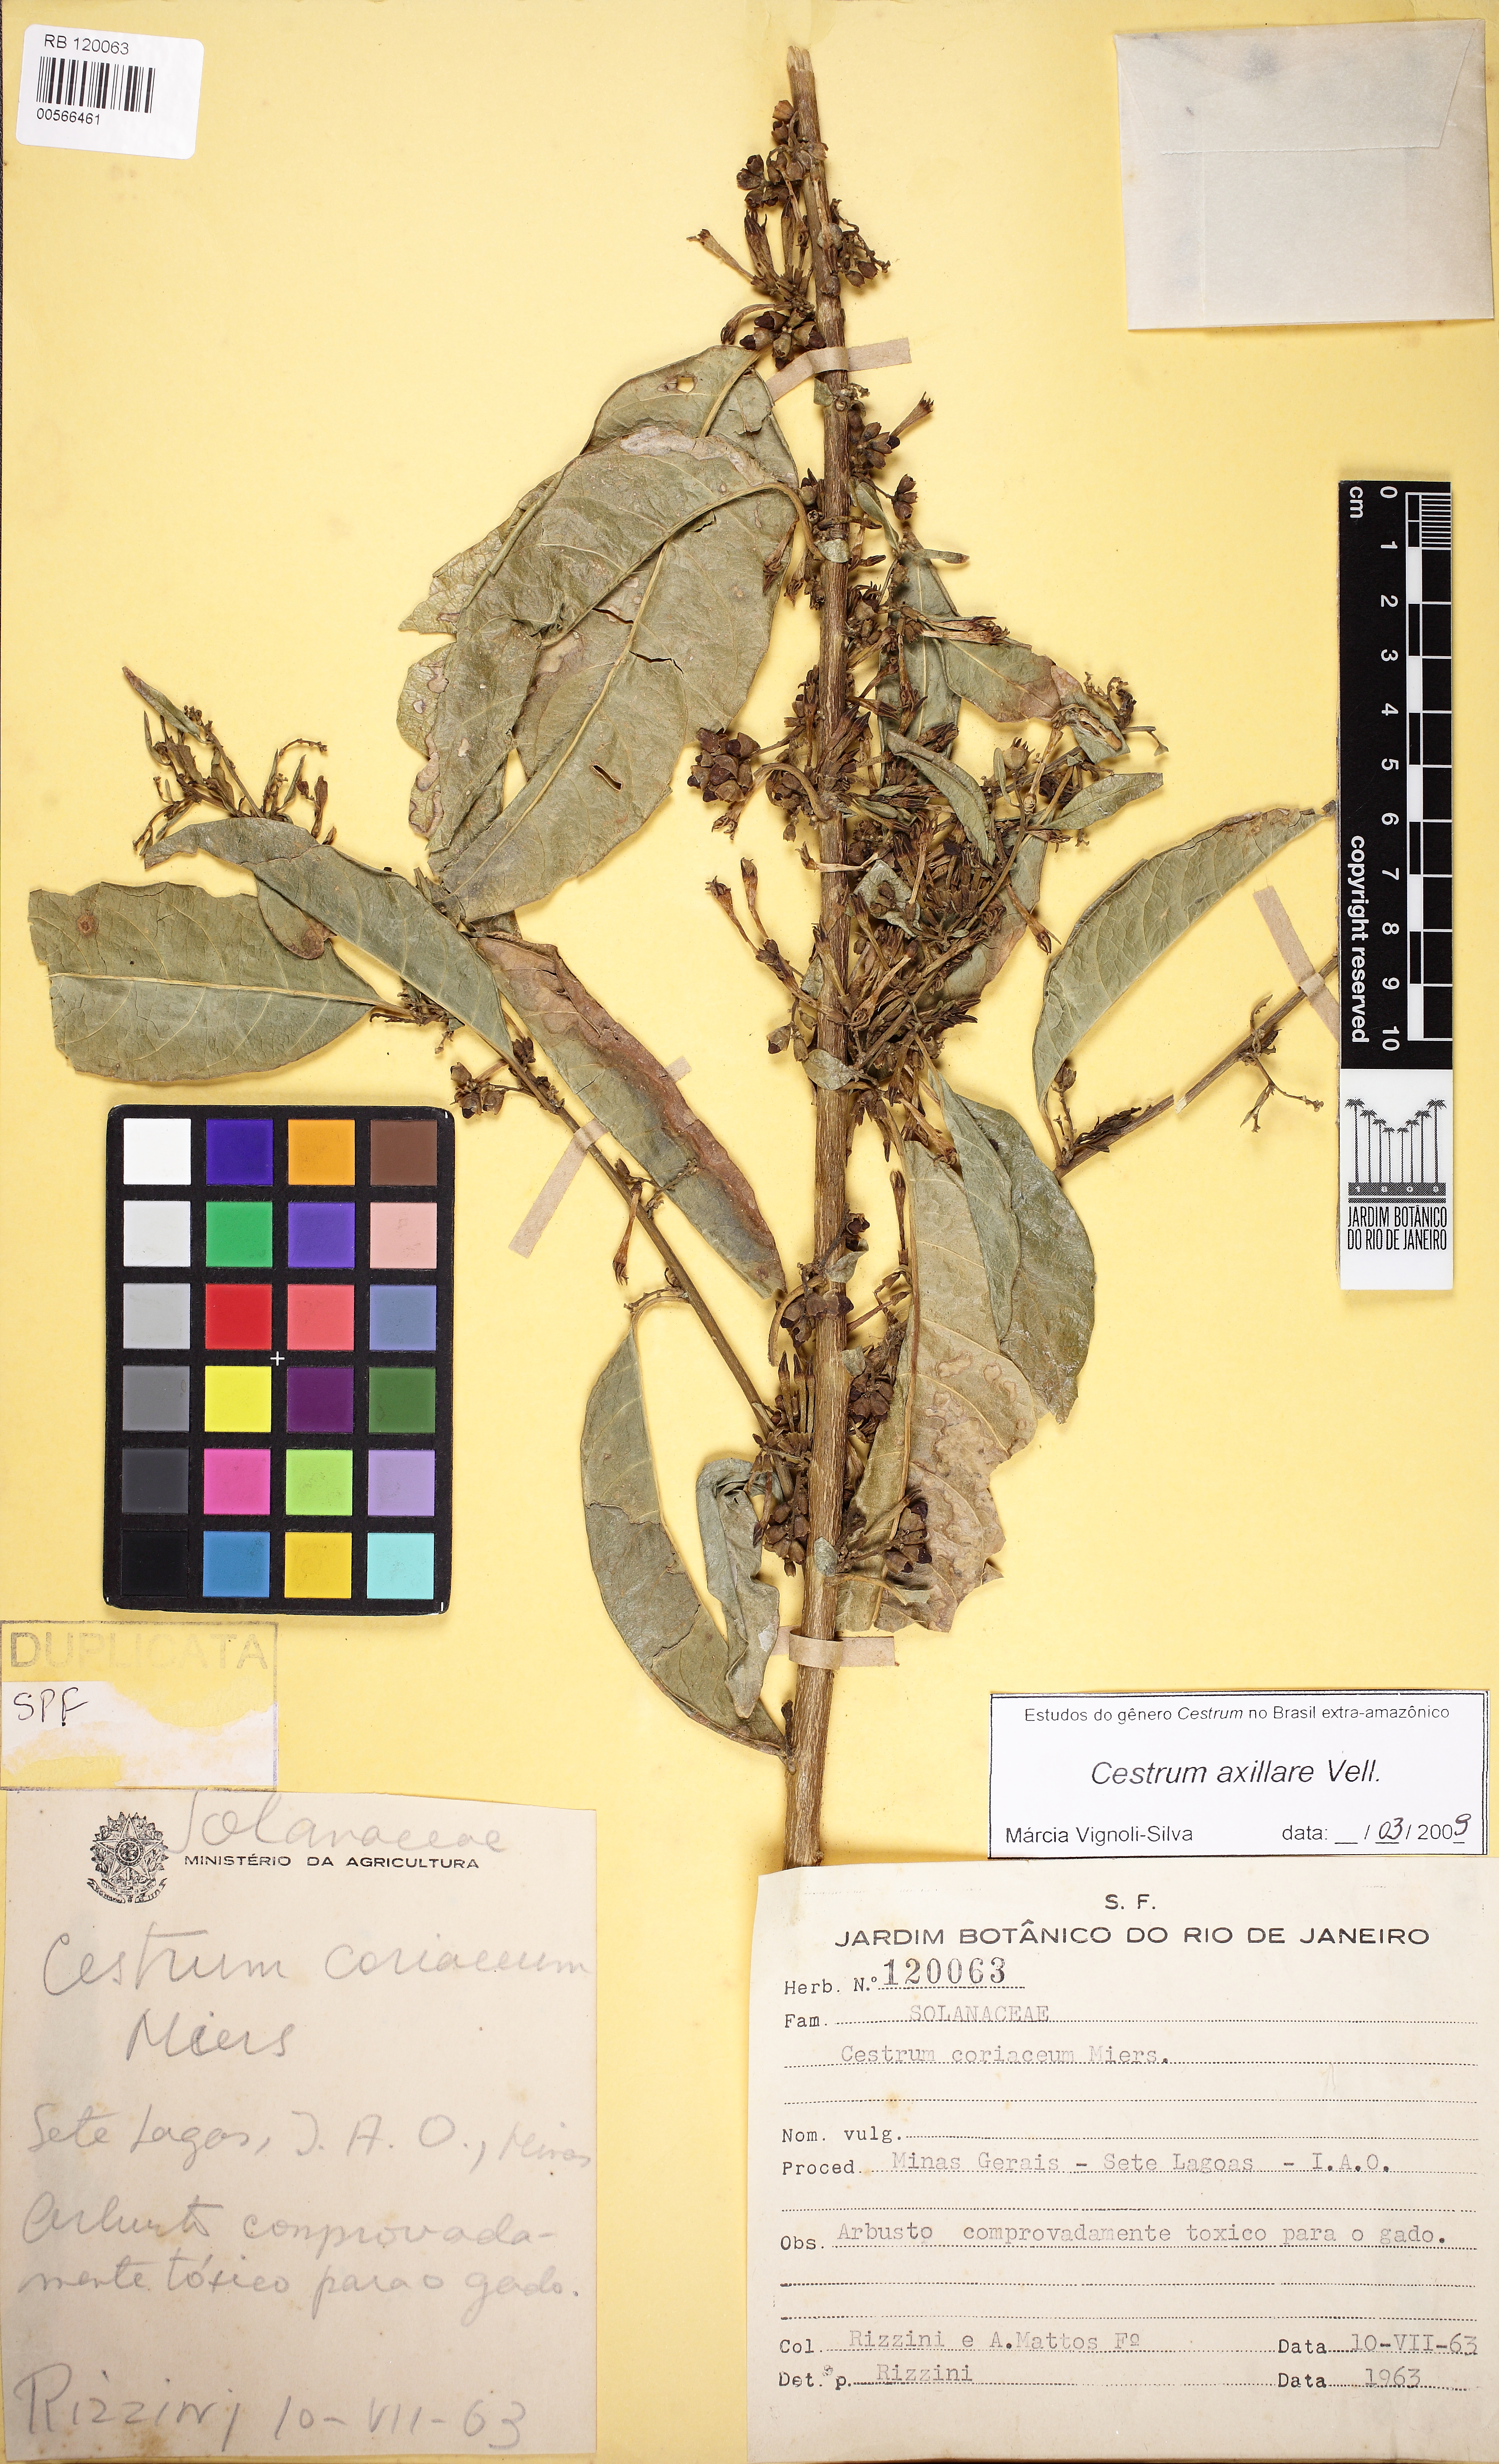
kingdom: Plantae
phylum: Tracheophyta
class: Magnoliopsida
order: Solanales
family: Solanaceae
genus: Cestrum
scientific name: Cestrum laevigatum
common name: Inkberry
